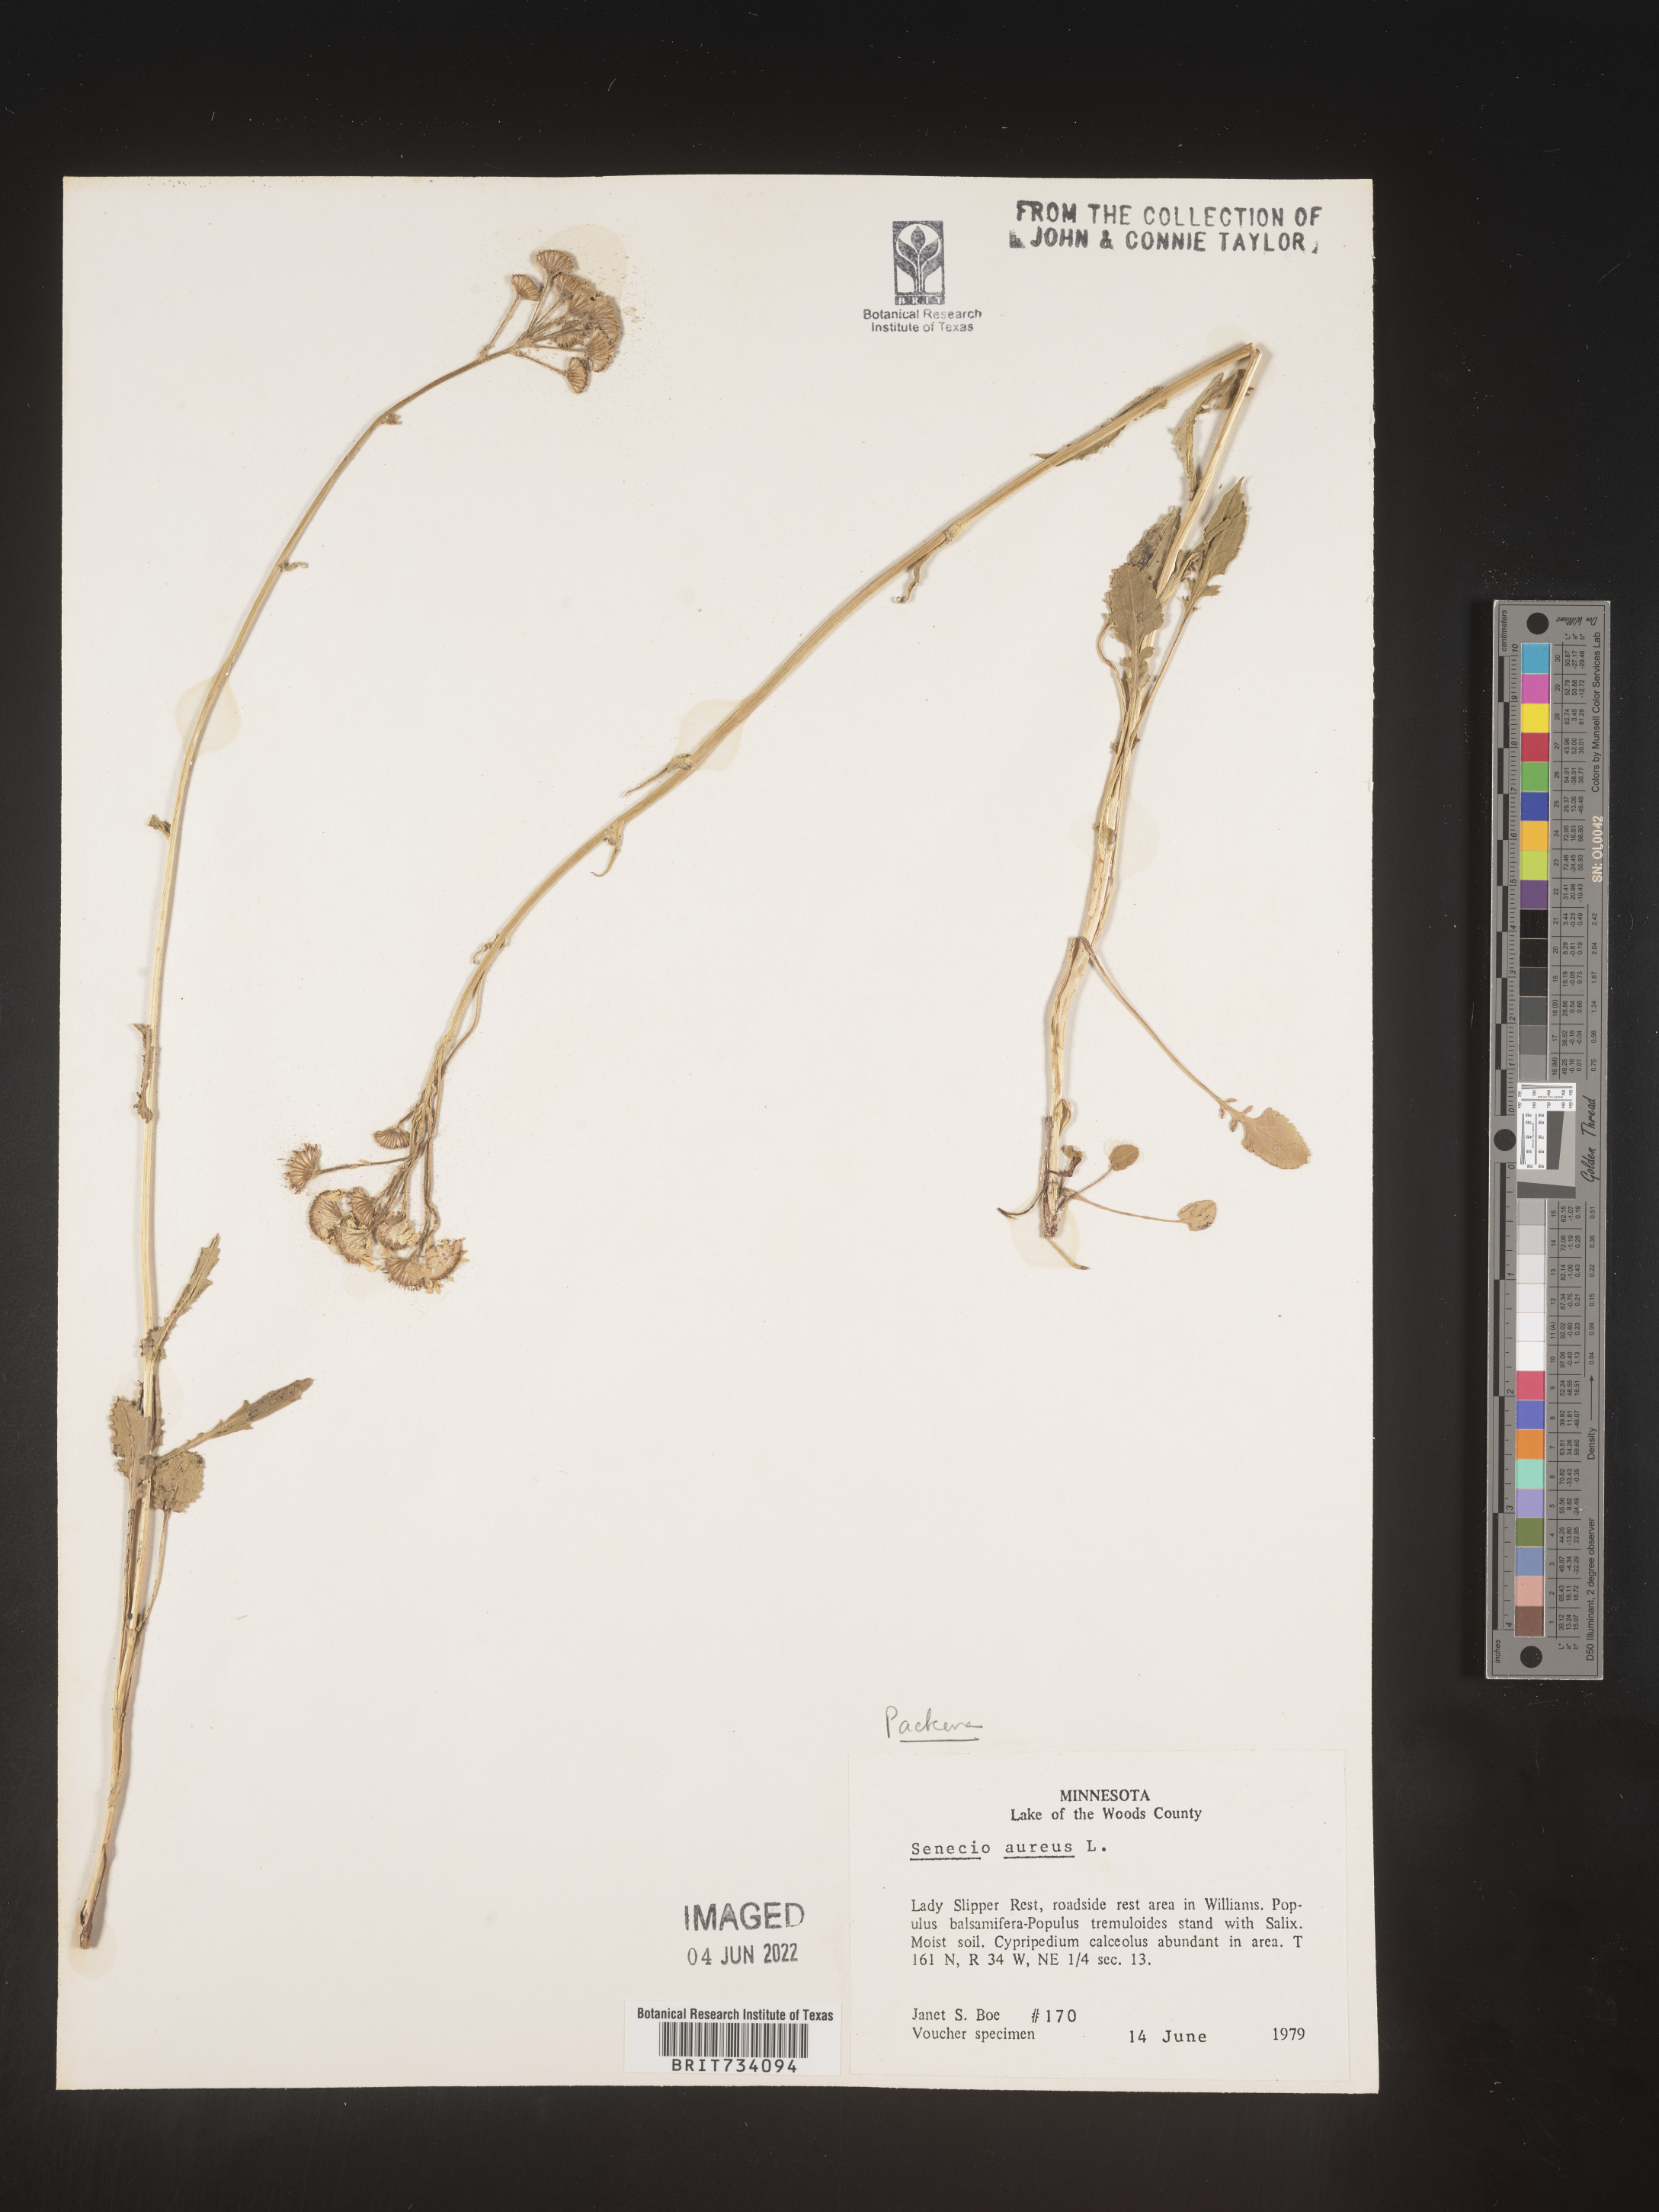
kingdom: Plantae
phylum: Tracheophyta
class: Magnoliopsida
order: Asterales
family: Asteraceae
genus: Packera
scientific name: Packera aurea
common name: Golden groundsel
